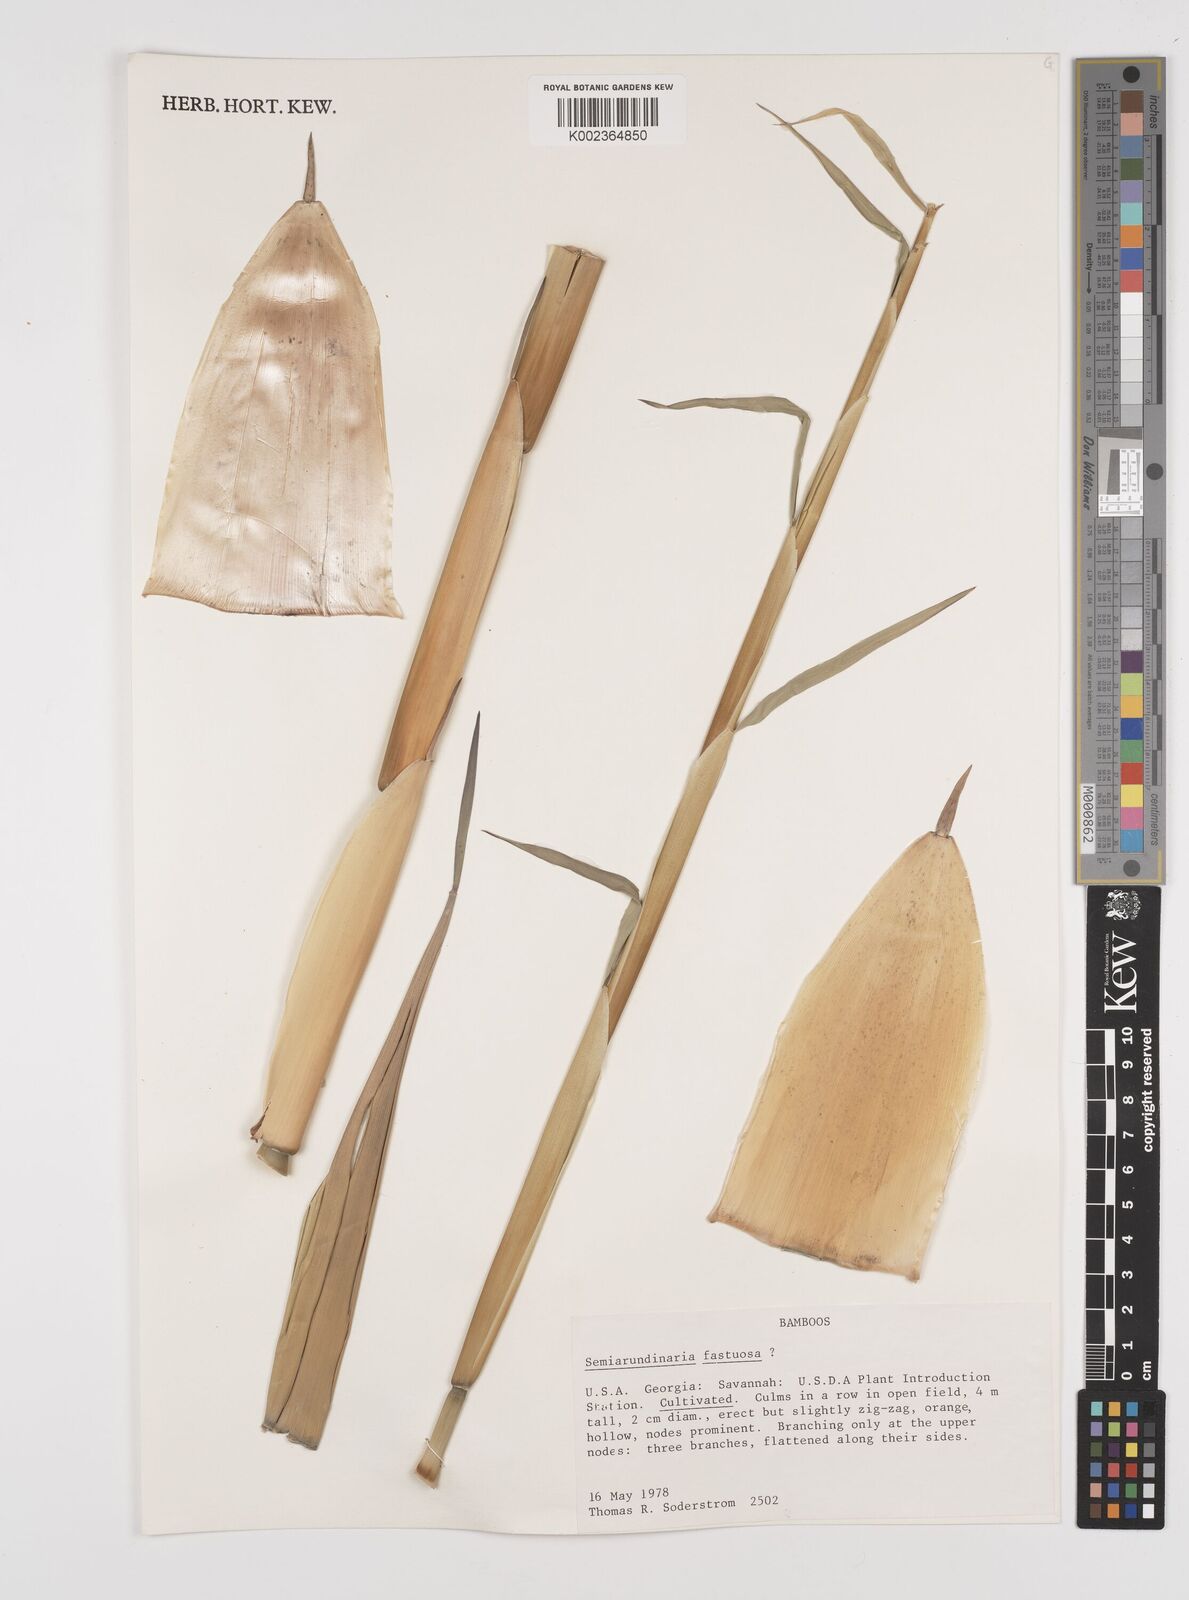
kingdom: Plantae
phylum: Tracheophyta
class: Liliopsida
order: Poales
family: Poaceae
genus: Semiarundinaria
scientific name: Semiarundinaria fastuosa
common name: Narihira bamboo
